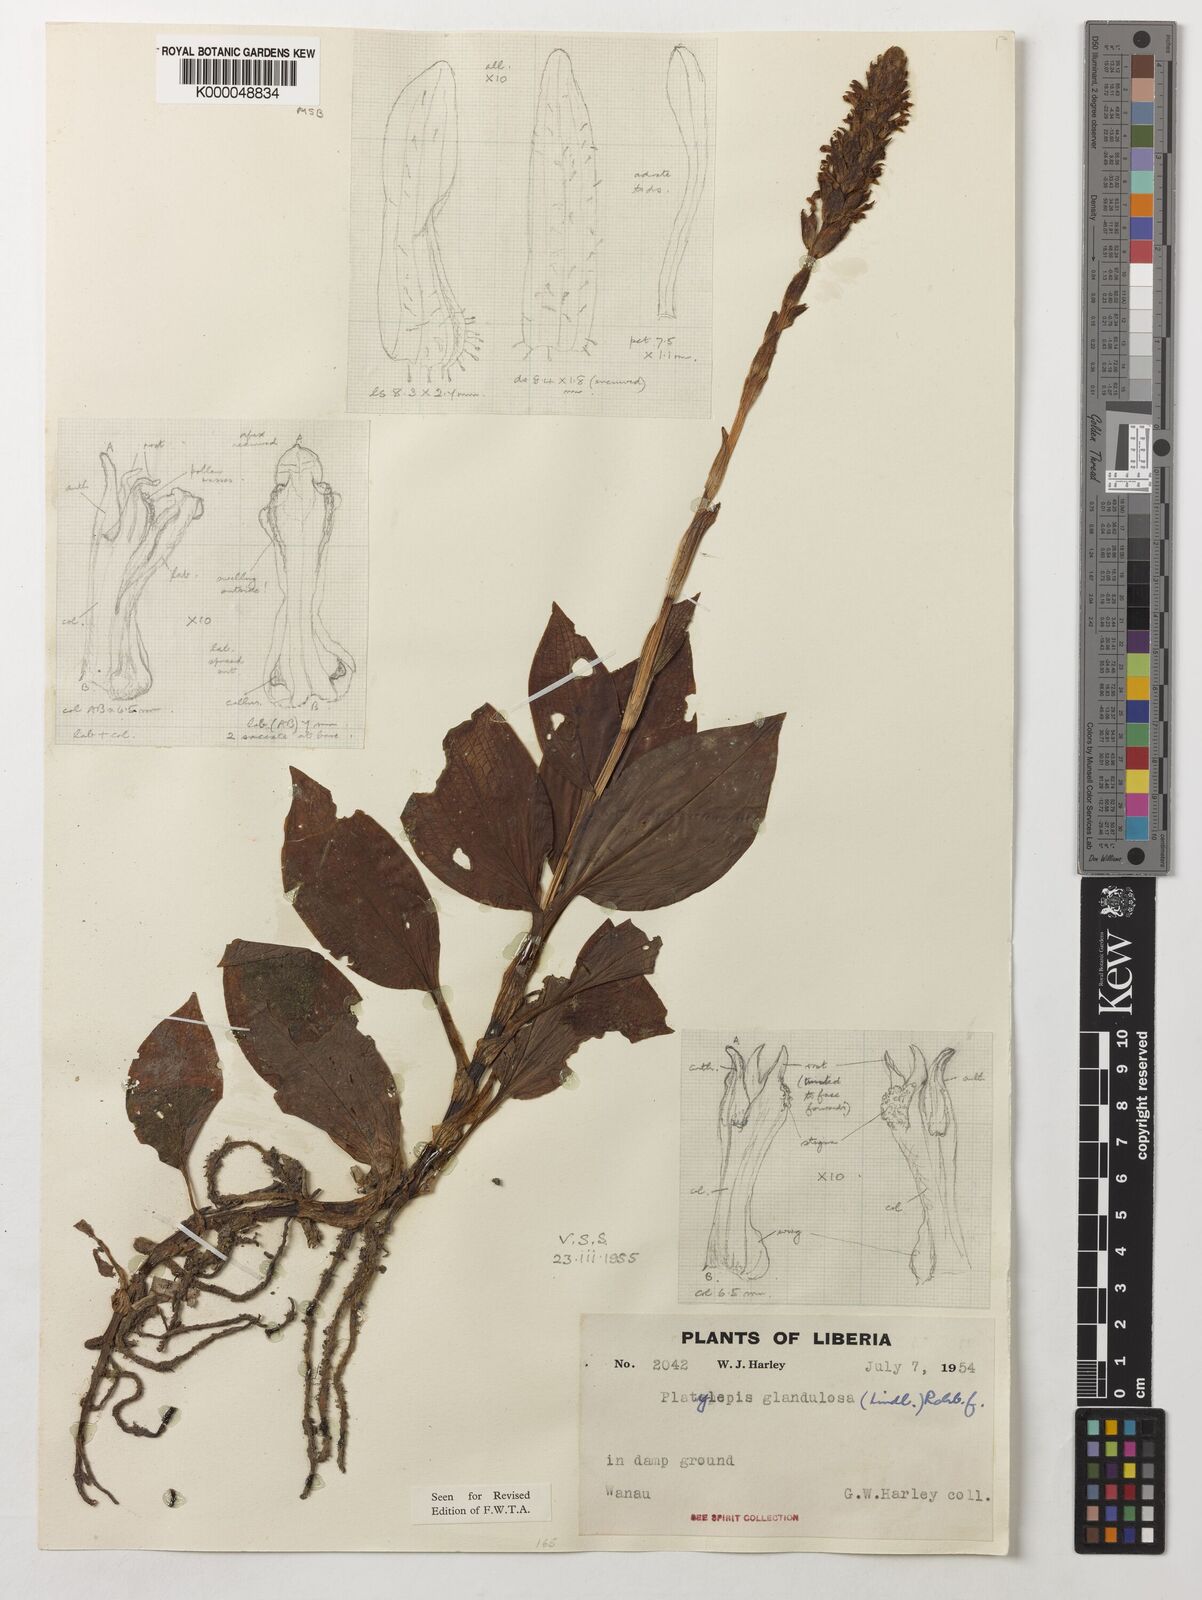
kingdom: Plantae
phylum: Tracheophyta
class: Liliopsida
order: Asparagales
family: Orchidaceae
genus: Platylepis
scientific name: Platylepis glandulosa
